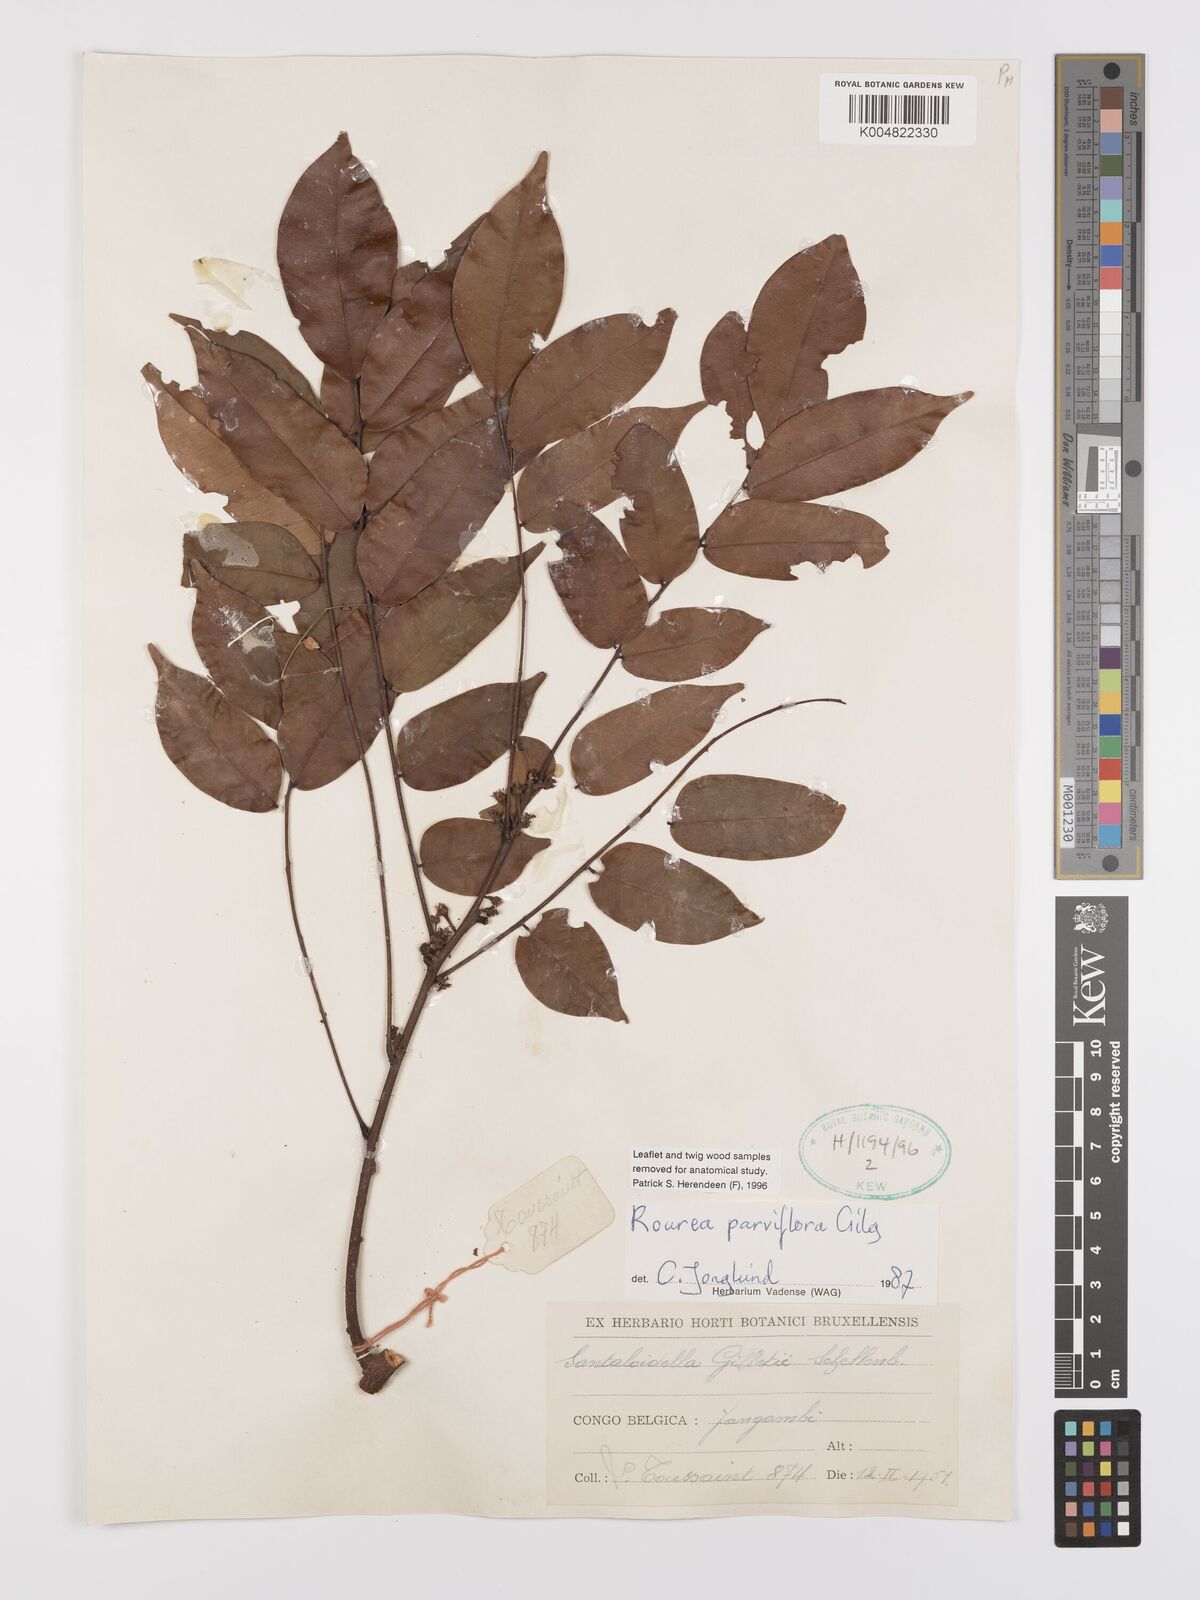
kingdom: Plantae
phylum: Tracheophyta
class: Magnoliopsida
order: Oxalidales
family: Connaraceae
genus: Rourea
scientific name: Rourea
